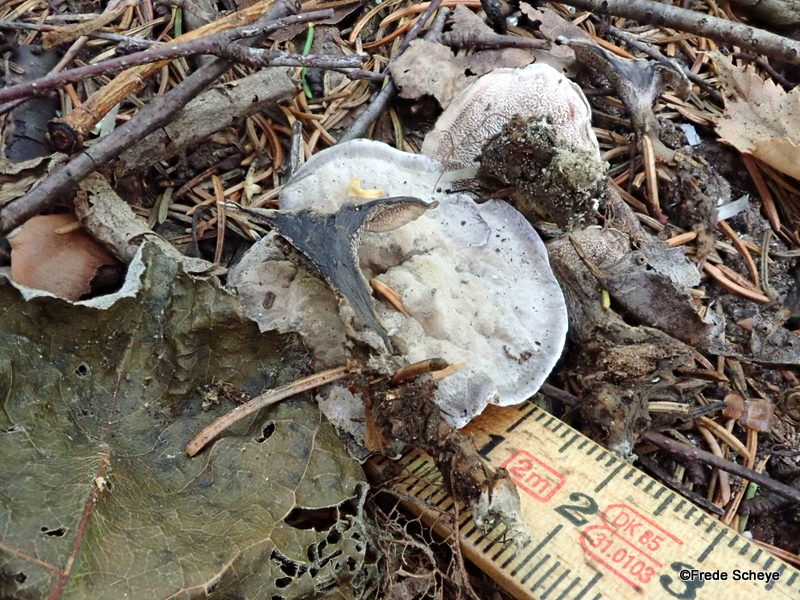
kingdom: Fungi
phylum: Basidiomycota
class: Agaricomycetes
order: Thelephorales
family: Thelephoraceae
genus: Phellodon
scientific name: Phellodon niger
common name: Black tooth
